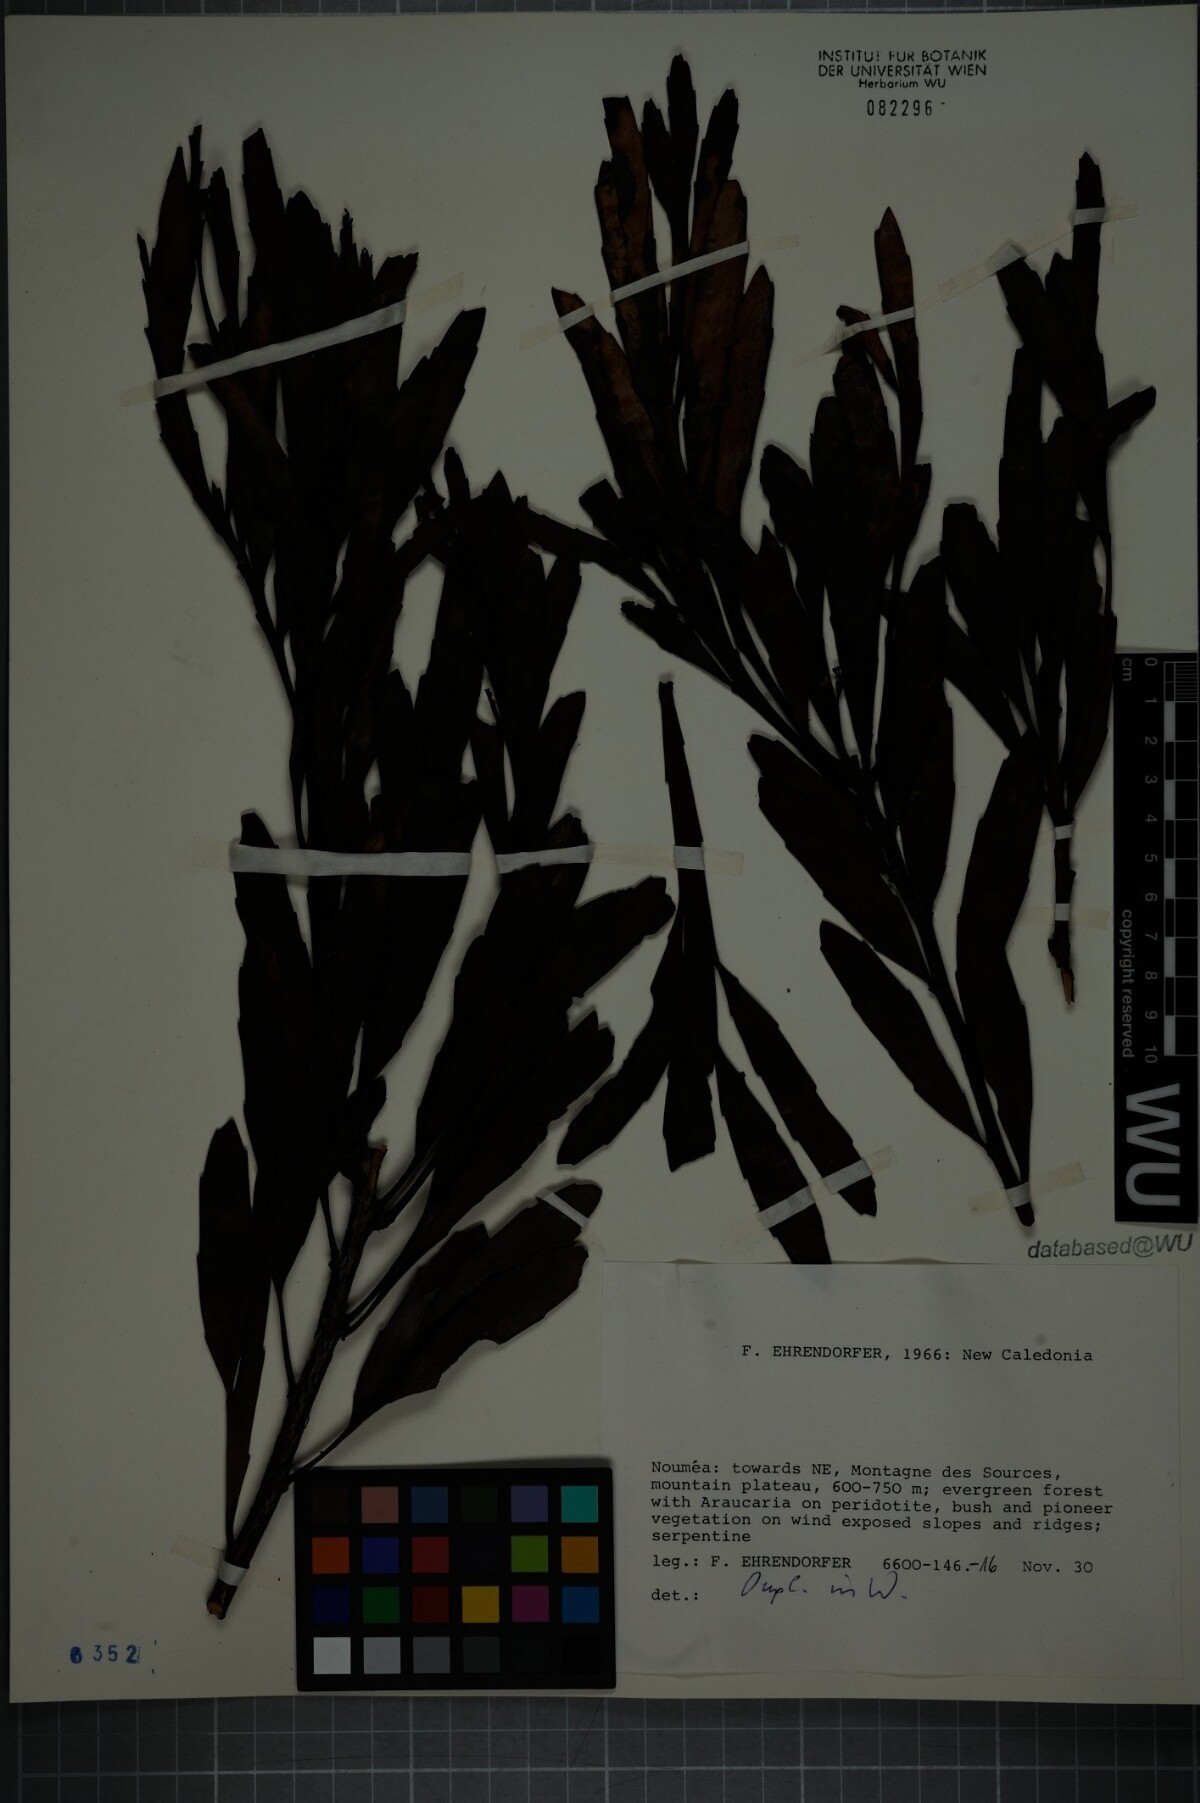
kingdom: Plantae
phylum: Tracheophyta
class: Magnoliopsida
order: Santalales
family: Santalaceae
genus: Exocarpos
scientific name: Exocarpos phyllanthoides
